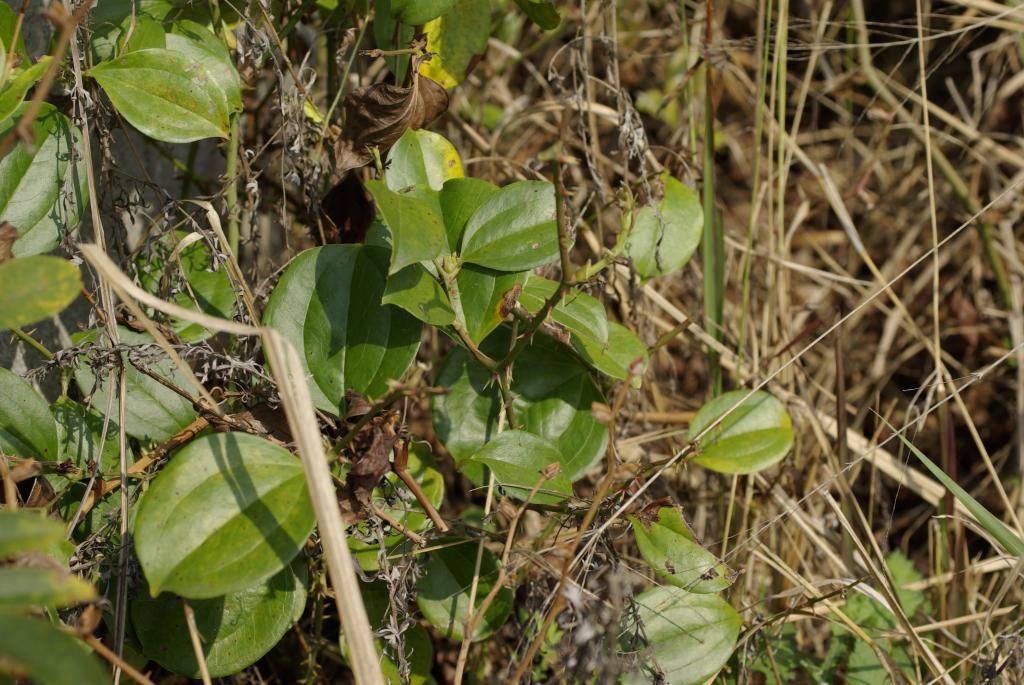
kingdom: Plantae
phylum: Tracheophyta
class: Liliopsida
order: Liliales
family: Smilacaceae
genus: Smilax
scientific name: Smilax china
